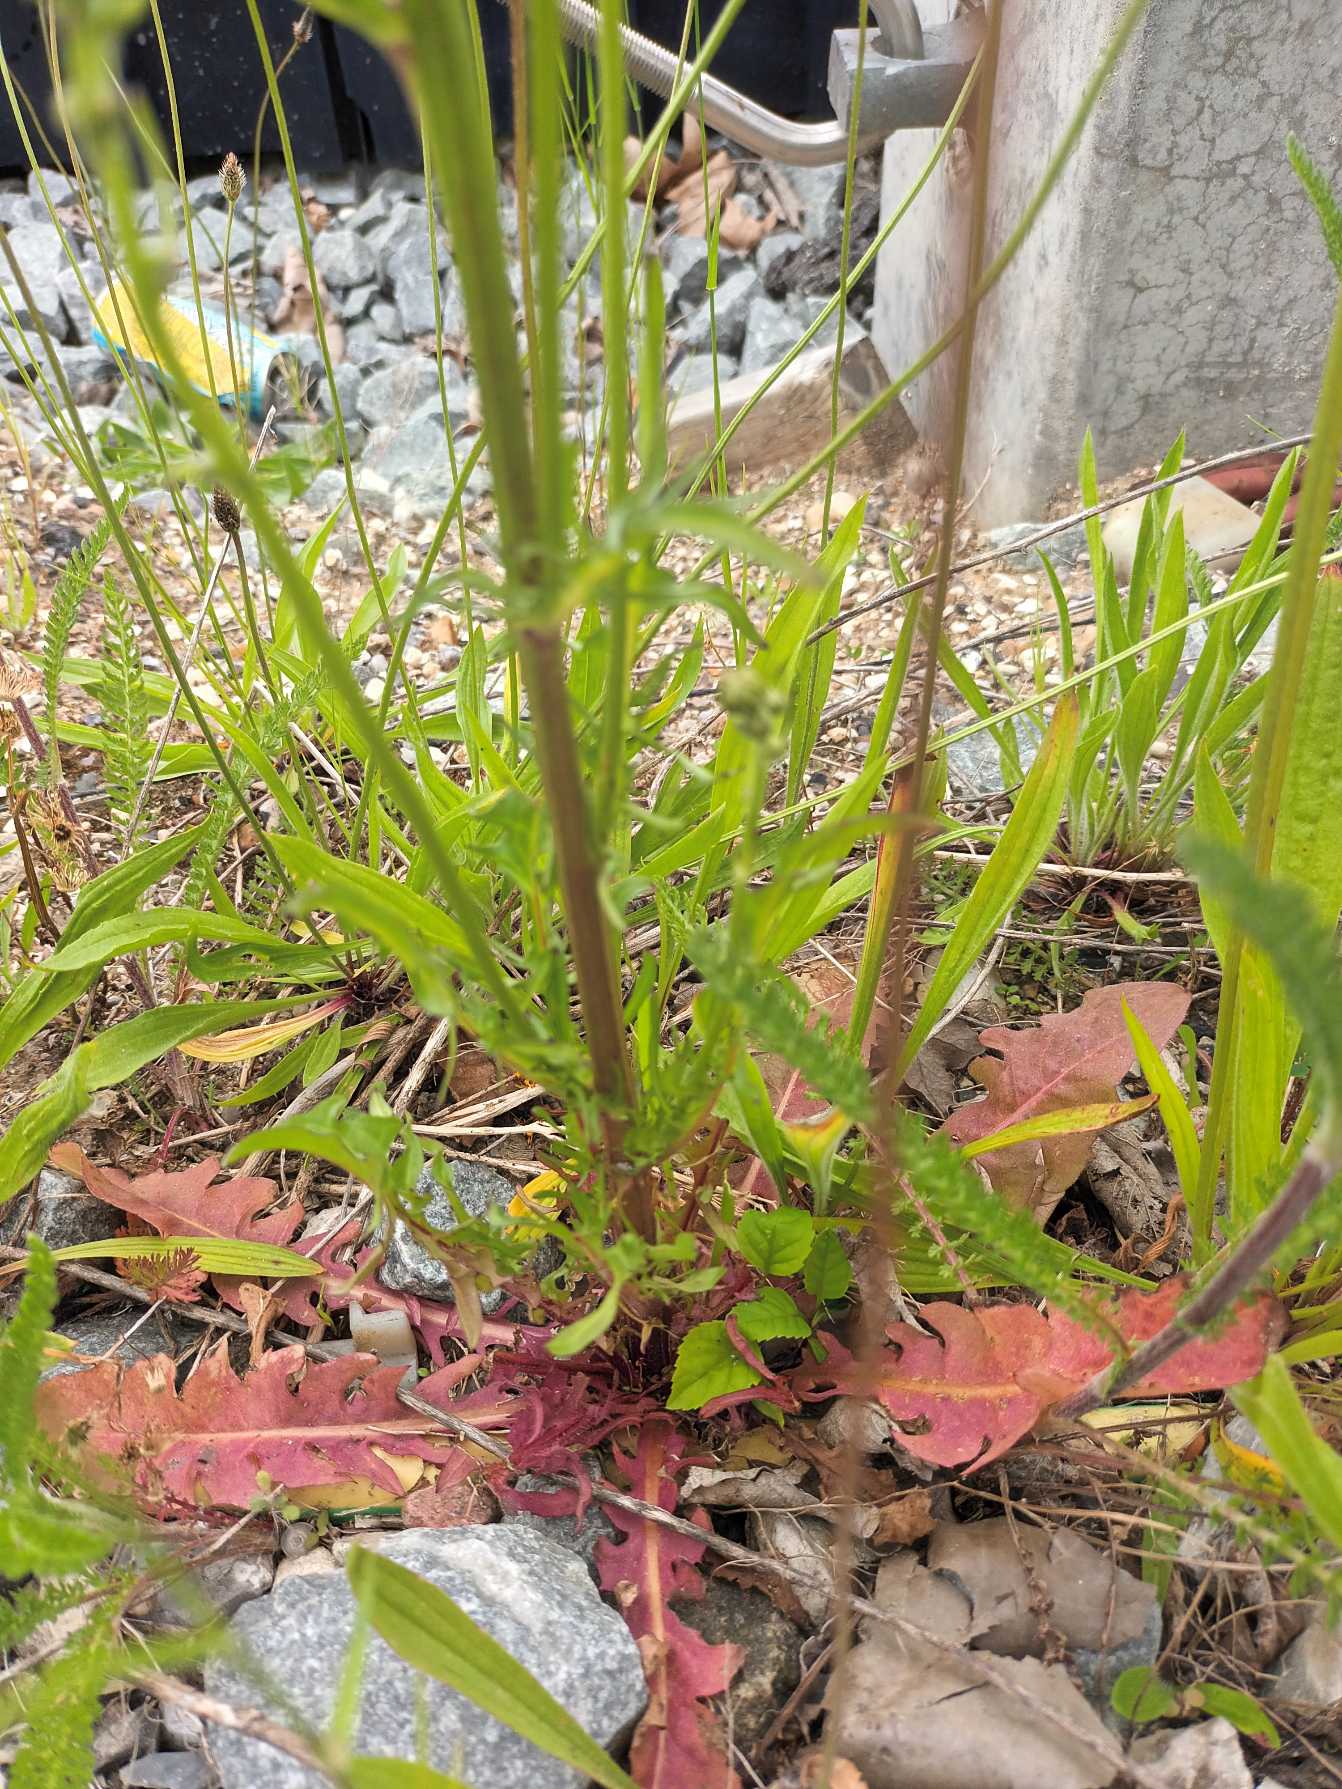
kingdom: Plantae
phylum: Tracheophyta
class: Magnoliopsida
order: Asterales
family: Asteraceae
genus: Crepis
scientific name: Crepis biennis
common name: Toårig høgeskæg
